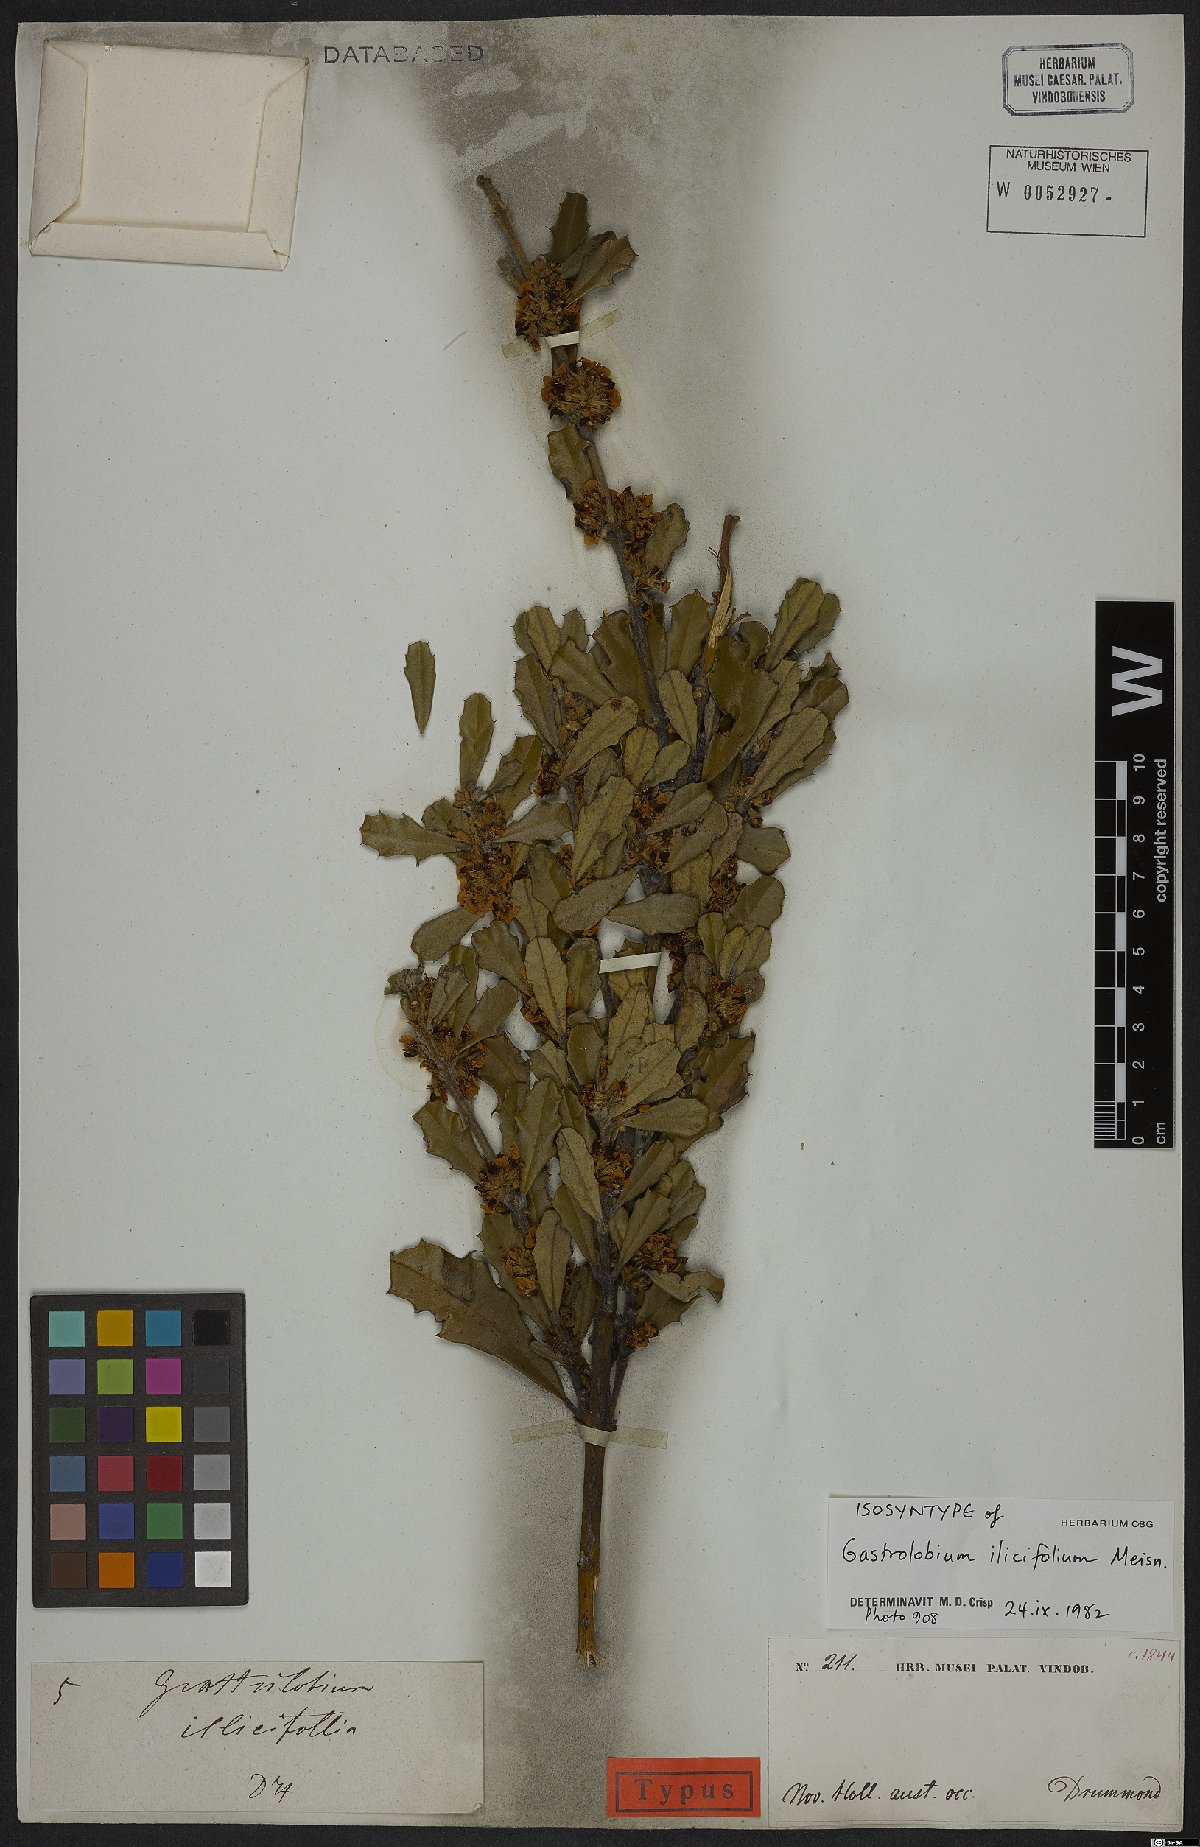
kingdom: Plantae
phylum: Tracheophyta
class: Magnoliopsida
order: Fabales
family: Fabaceae
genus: Gastrolobium
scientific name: Gastrolobium ilicifolium
